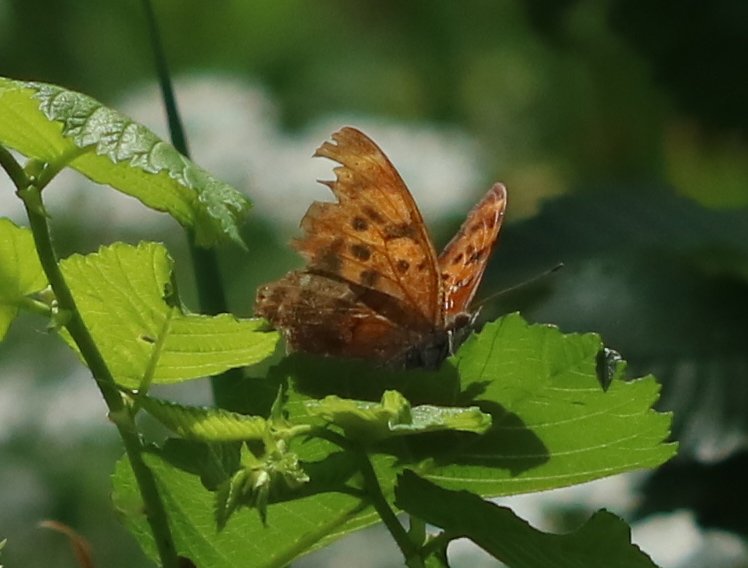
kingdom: Animalia
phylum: Arthropoda
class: Insecta
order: Lepidoptera
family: Nymphalidae
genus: Polygonia
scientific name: Polygonia interrogationis
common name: Question Mark
